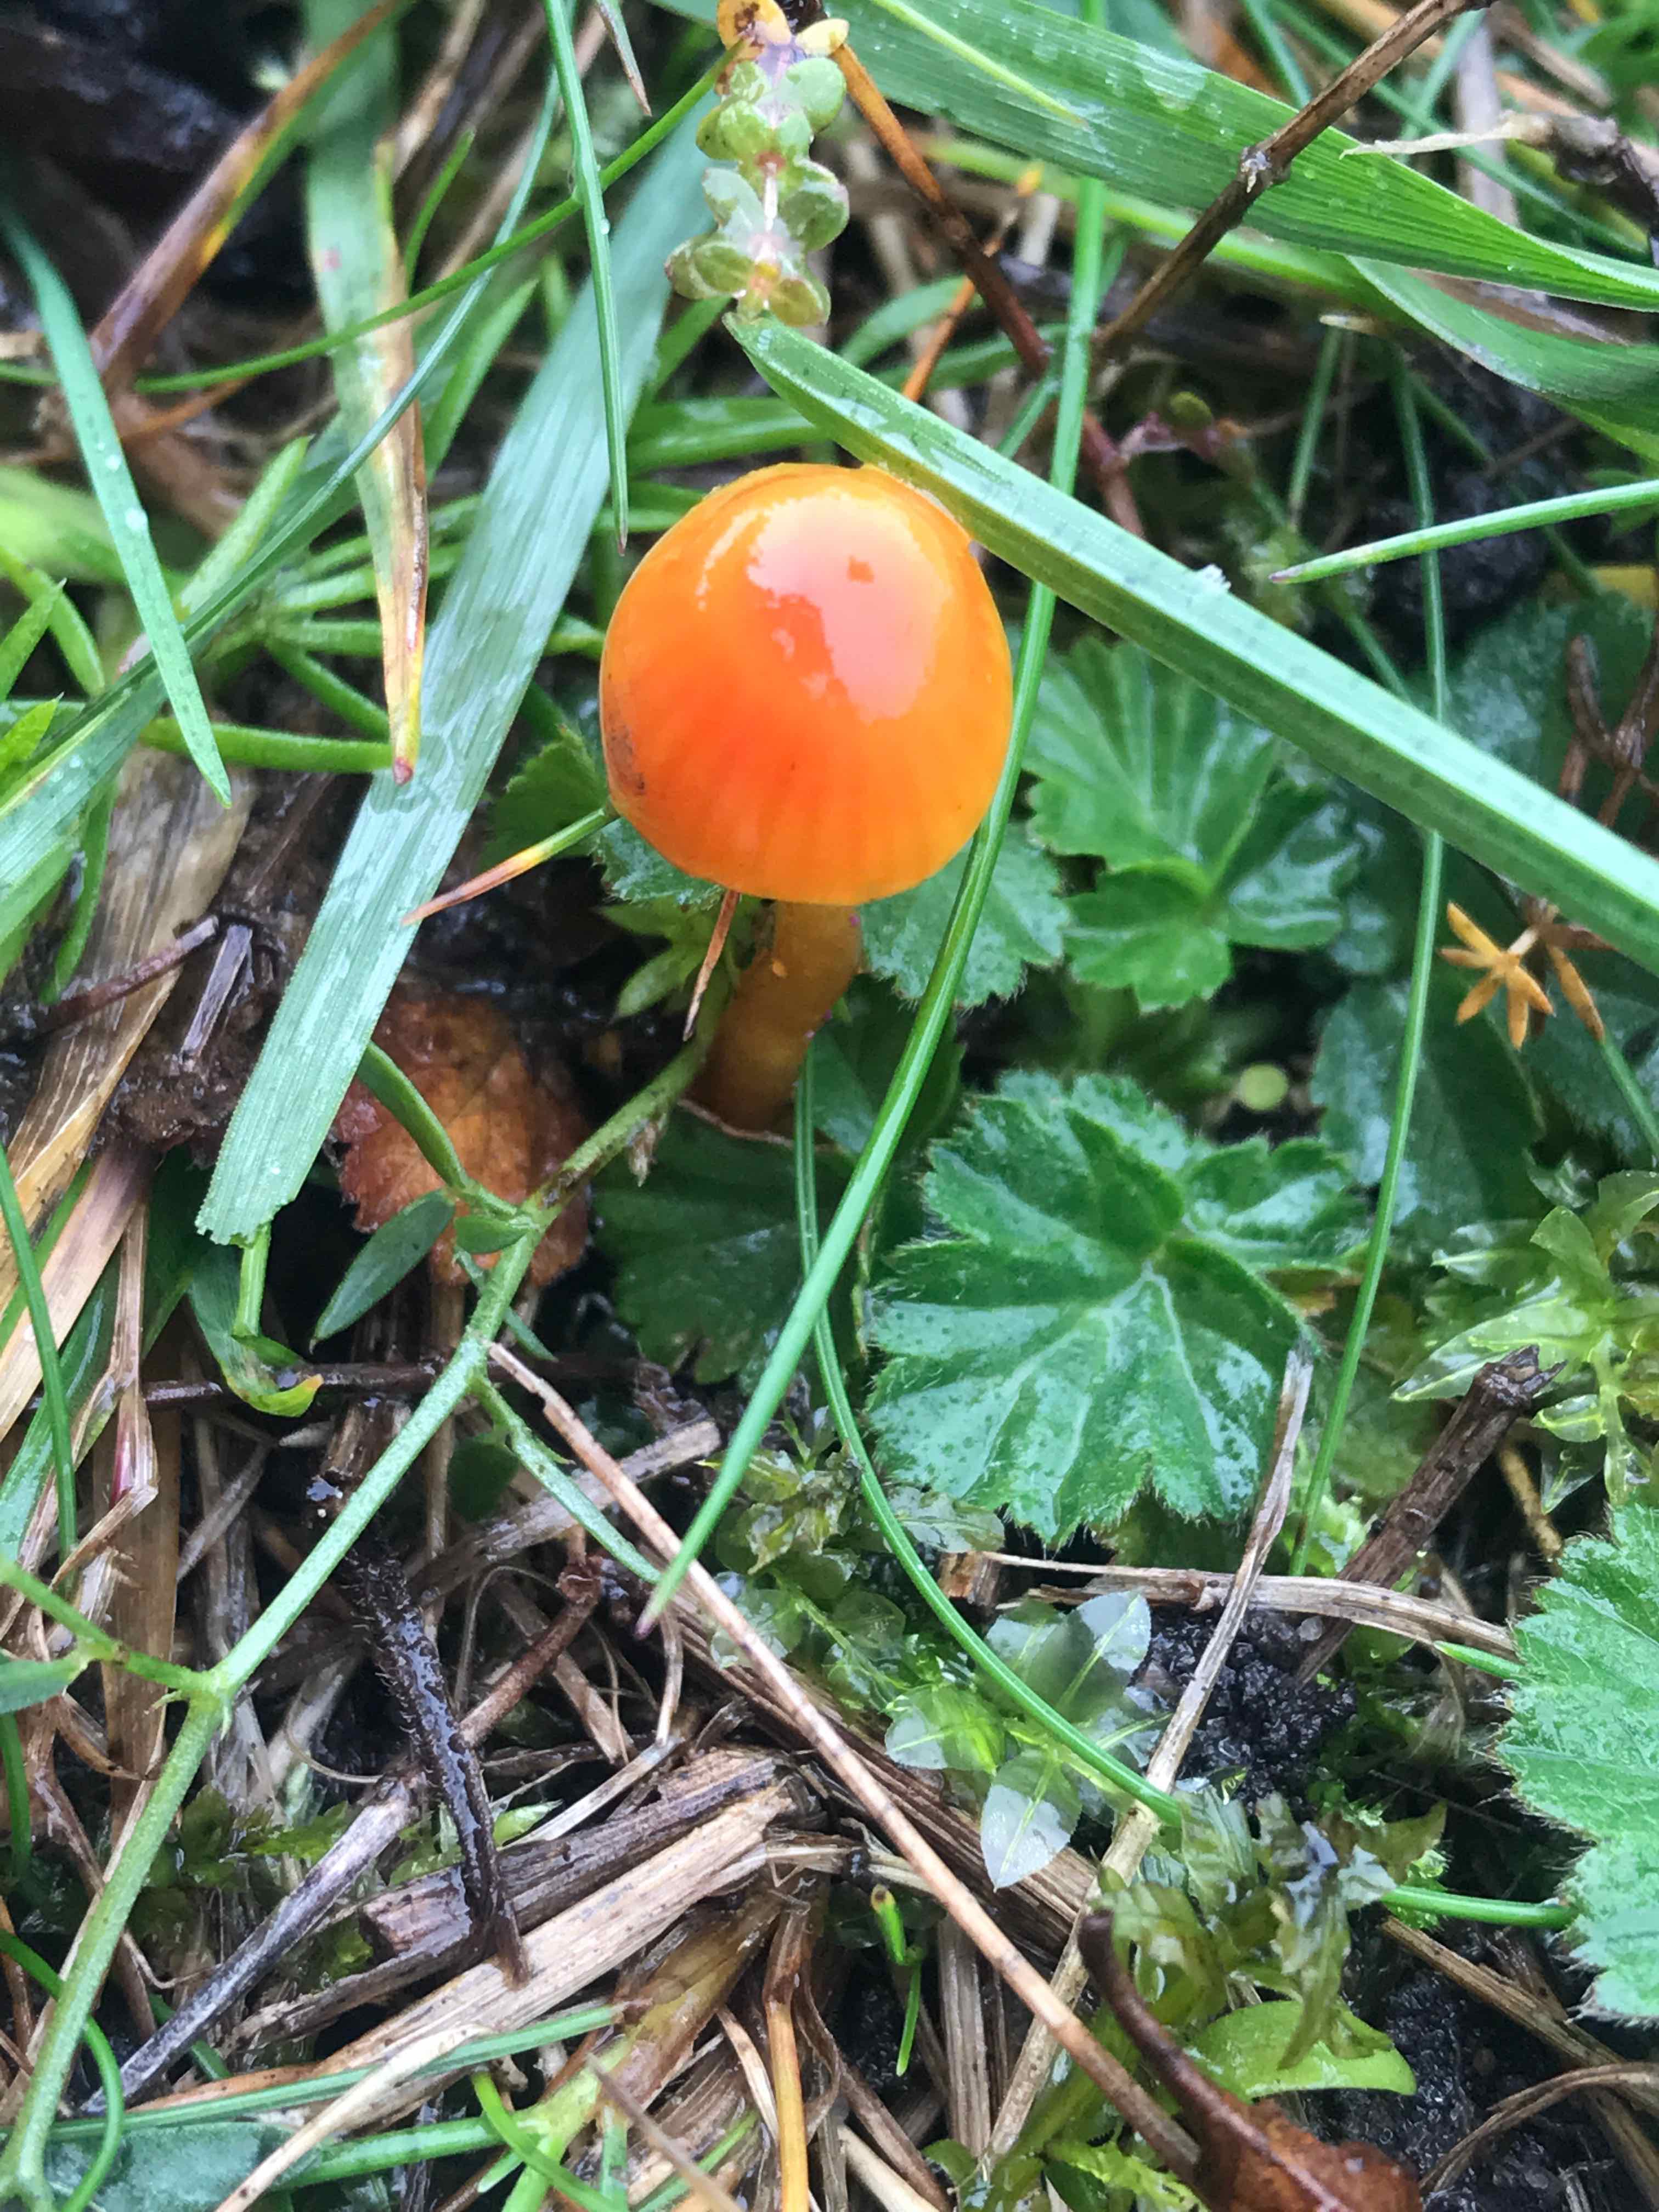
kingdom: Fungi
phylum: Basidiomycota
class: Agaricomycetes
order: Agaricales
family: Hygrophoraceae
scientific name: Hygrophoraceae
